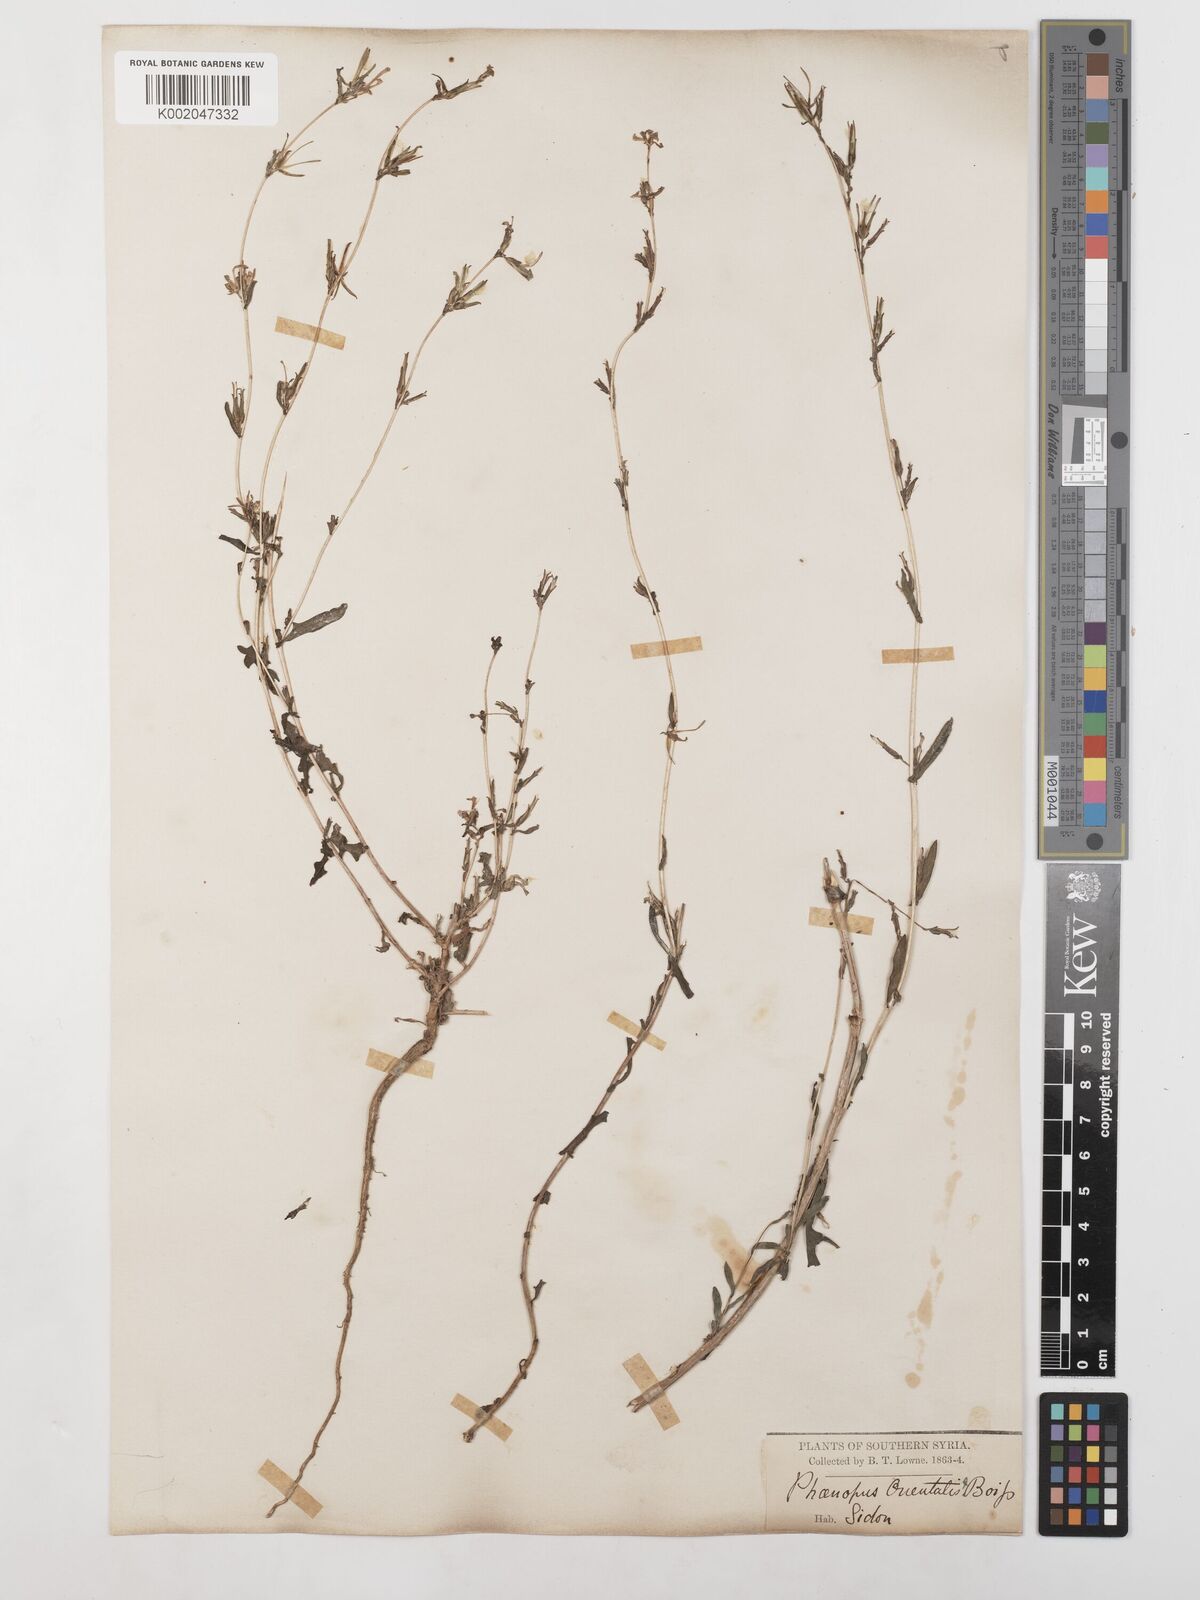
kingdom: Plantae
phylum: Tracheophyta
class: Magnoliopsida
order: Asterales
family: Asteraceae
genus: Lactuca
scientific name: Lactuca saligna
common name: Wild lettuce
